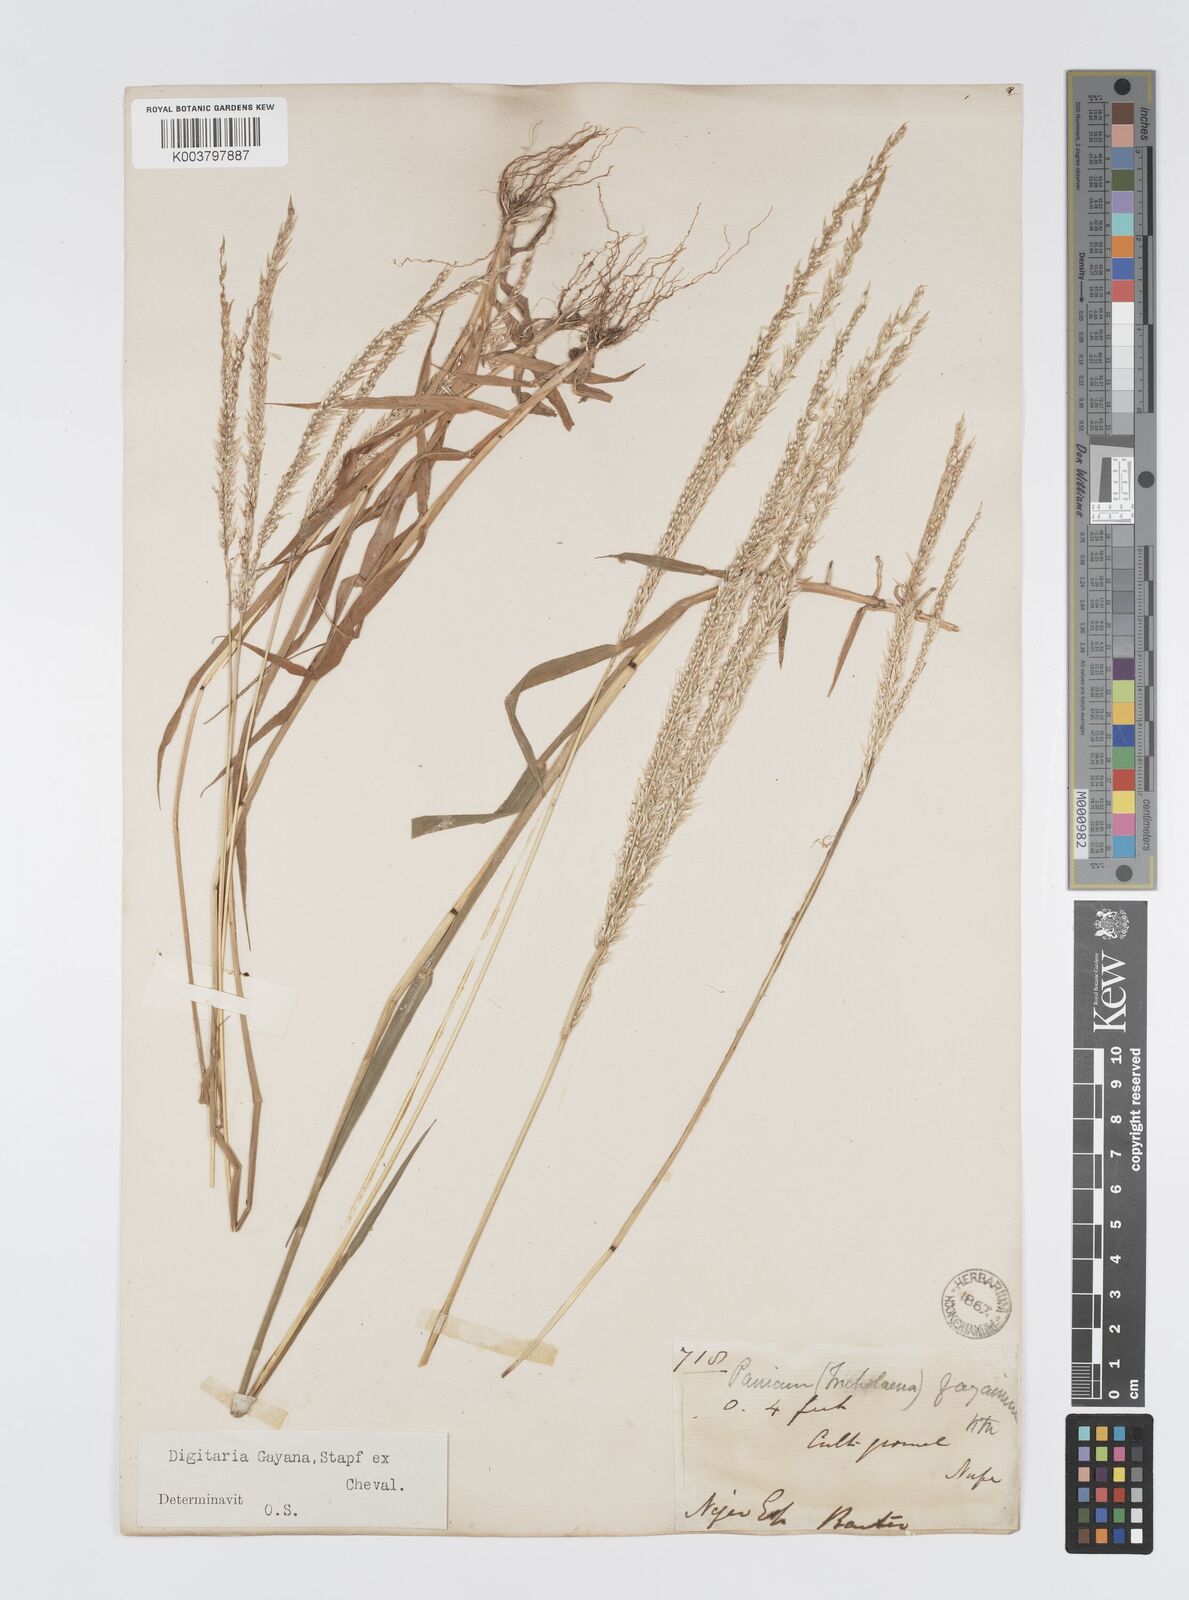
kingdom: Plantae
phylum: Tracheophyta
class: Liliopsida
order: Poales
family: Poaceae
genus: Digitaria
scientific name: Digitaria gayana
